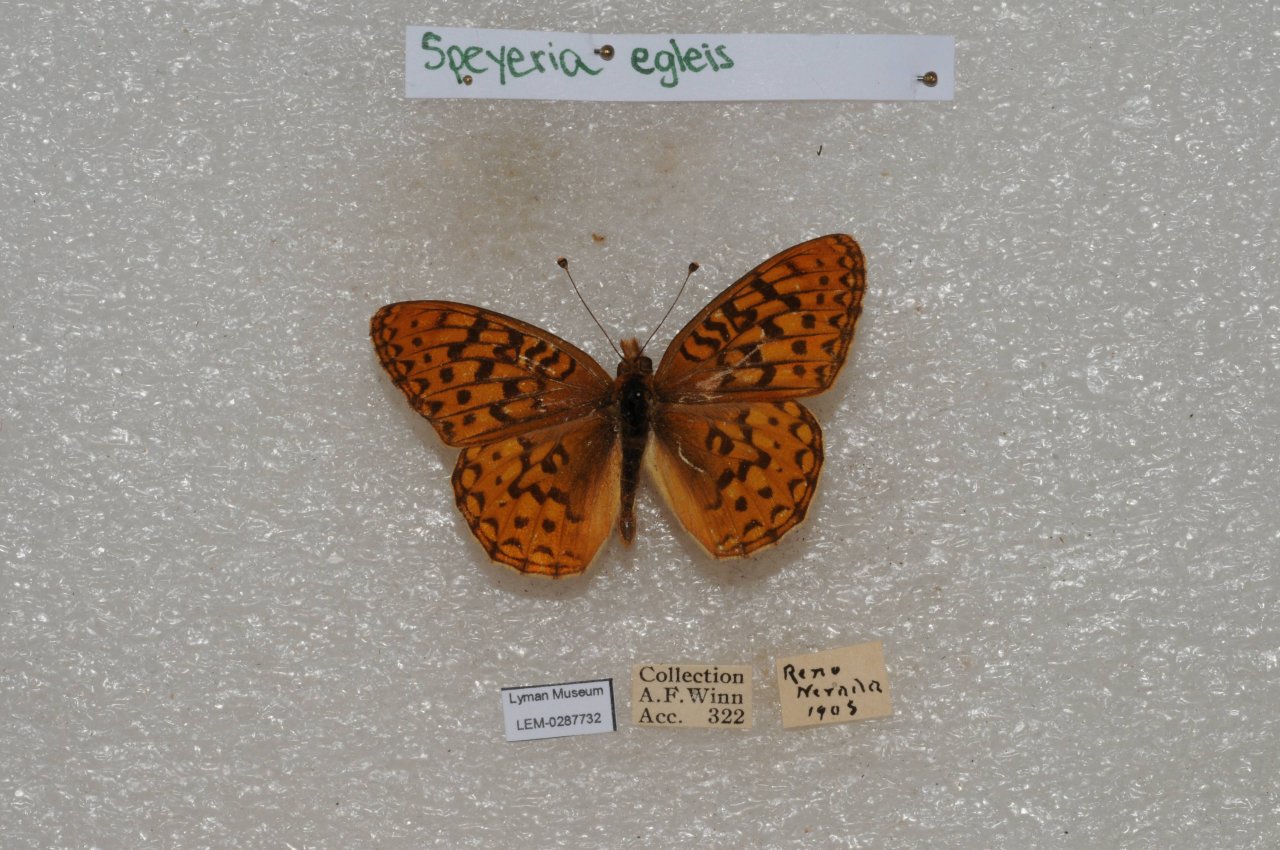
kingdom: Animalia
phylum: Arthropoda
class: Insecta
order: Lepidoptera
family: Nymphalidae
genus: Speyeria
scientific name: Speyeria egleis
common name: Great Basin Fritillary
